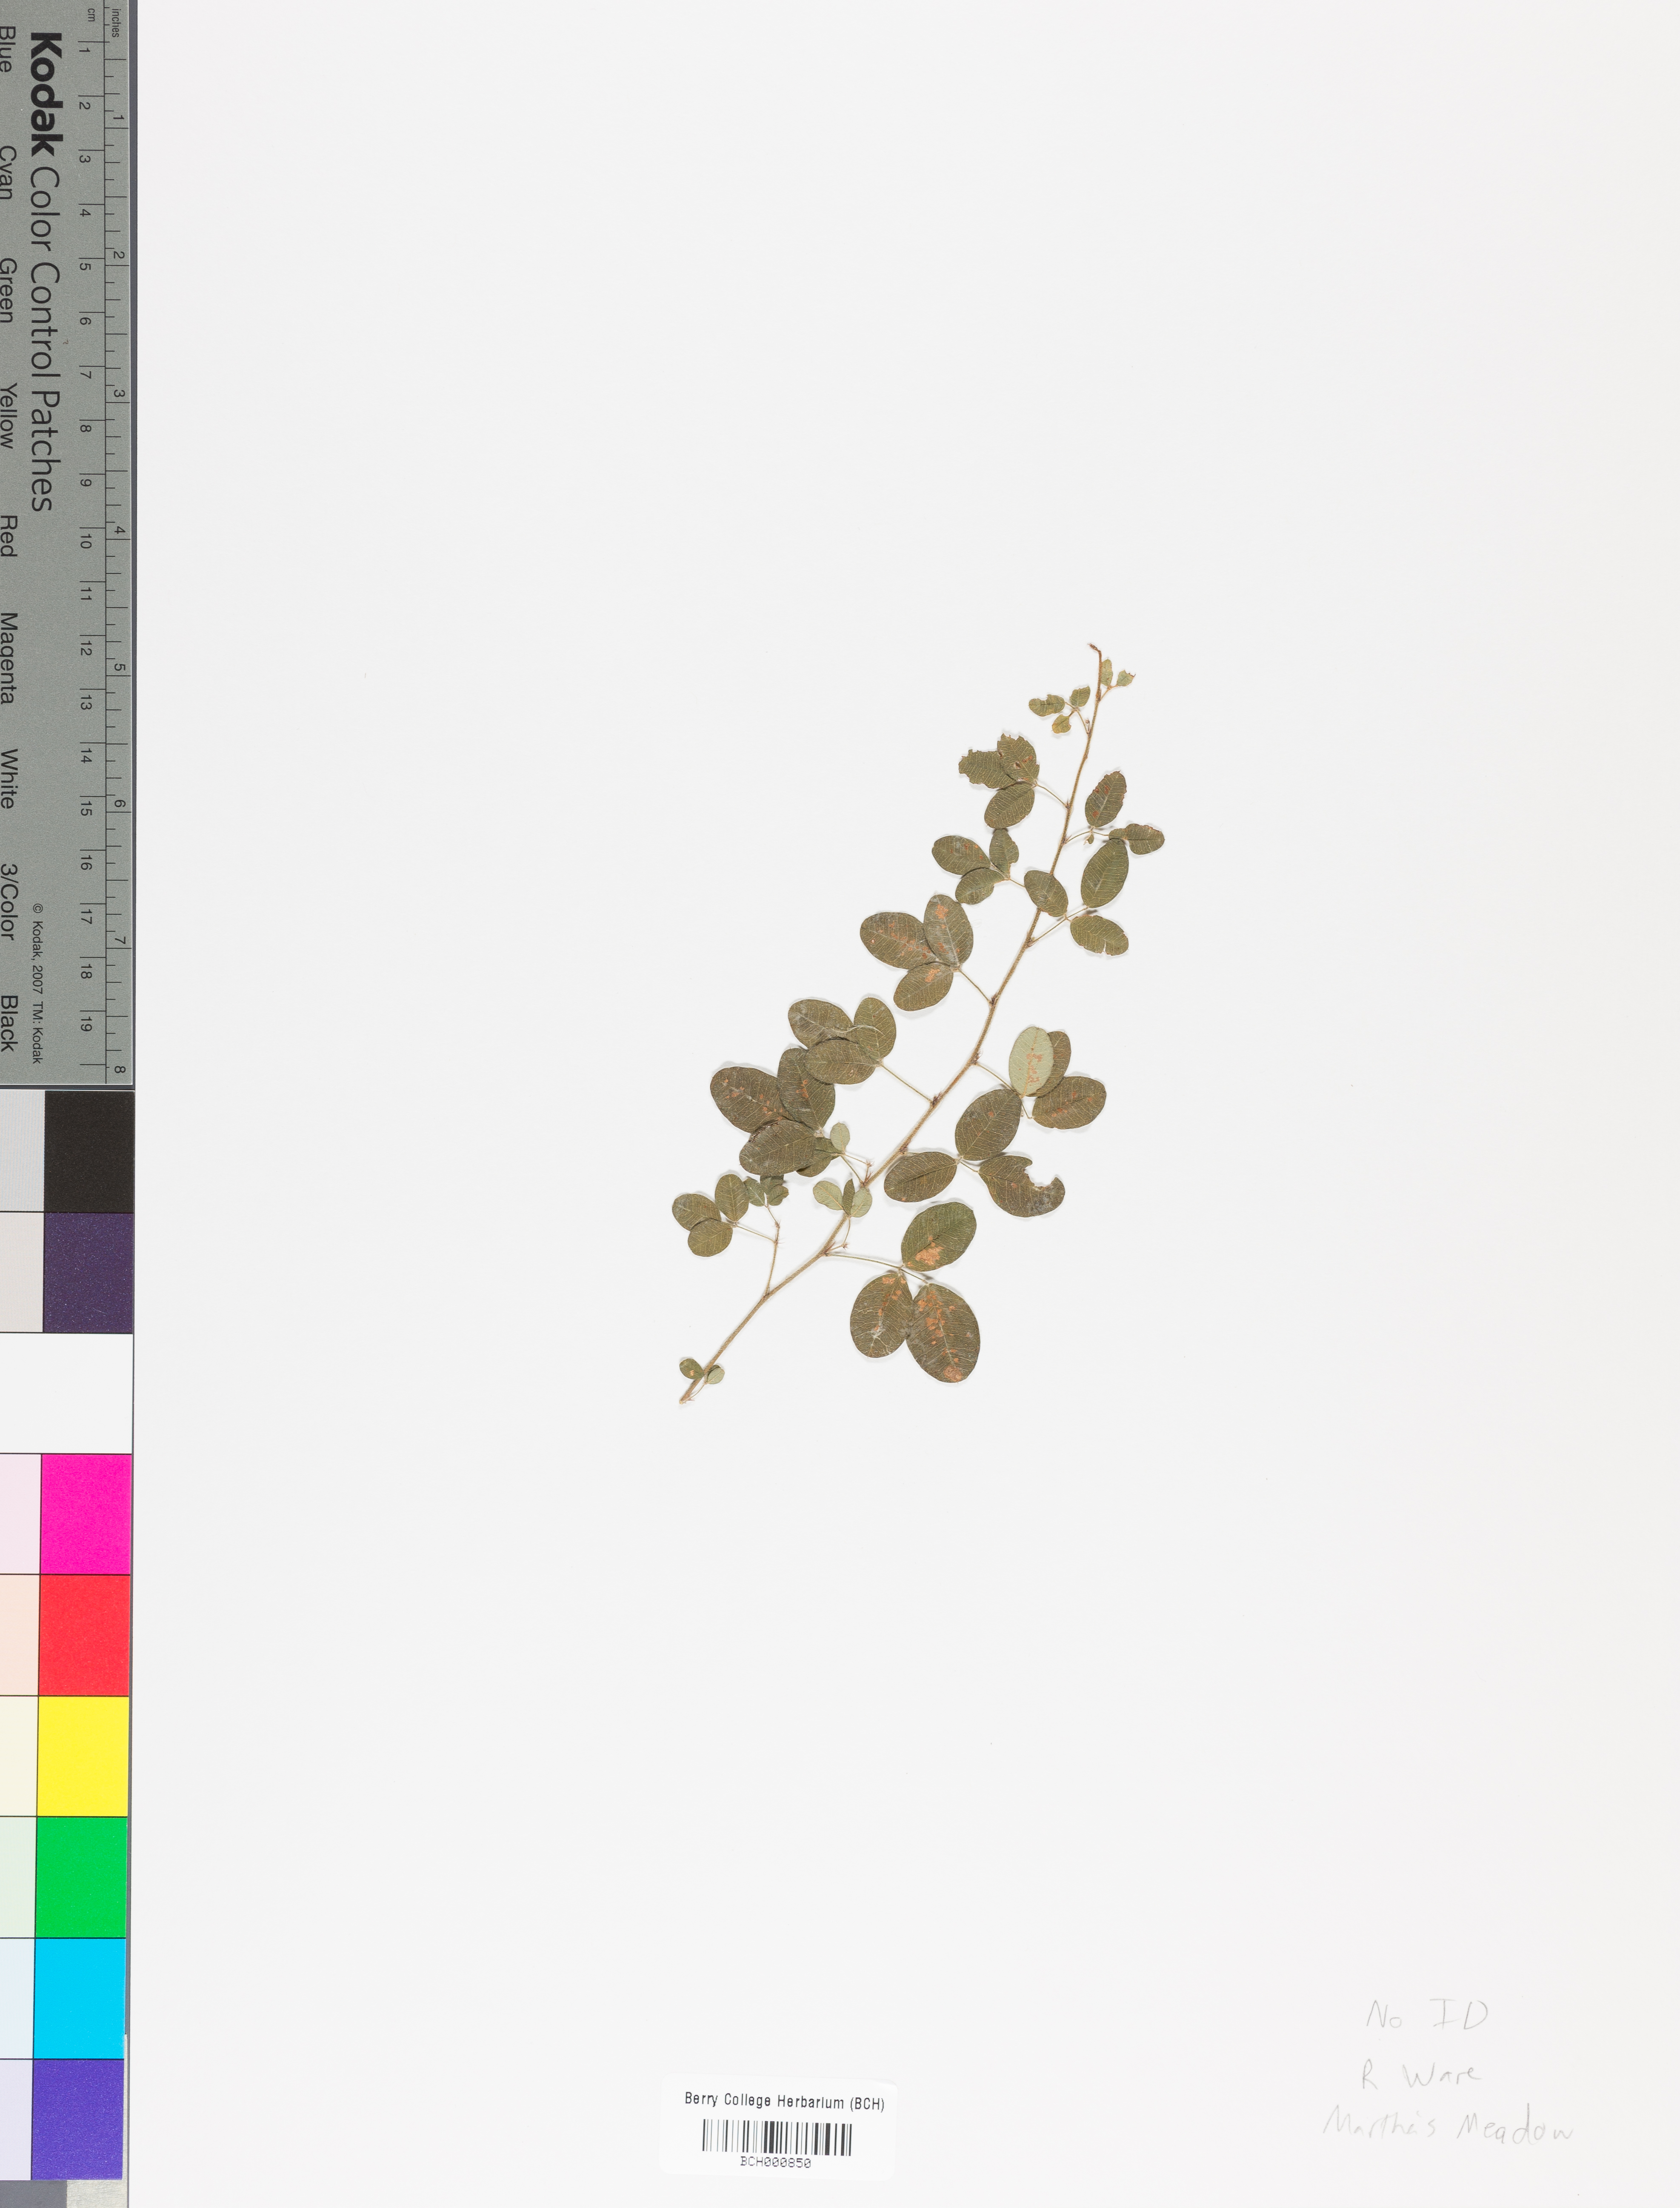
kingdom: Plantae
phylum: Tracheophyta
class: Magnoliopsida
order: Lamiales
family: Acanthaceae
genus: Adhatoda
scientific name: Adhatoda
